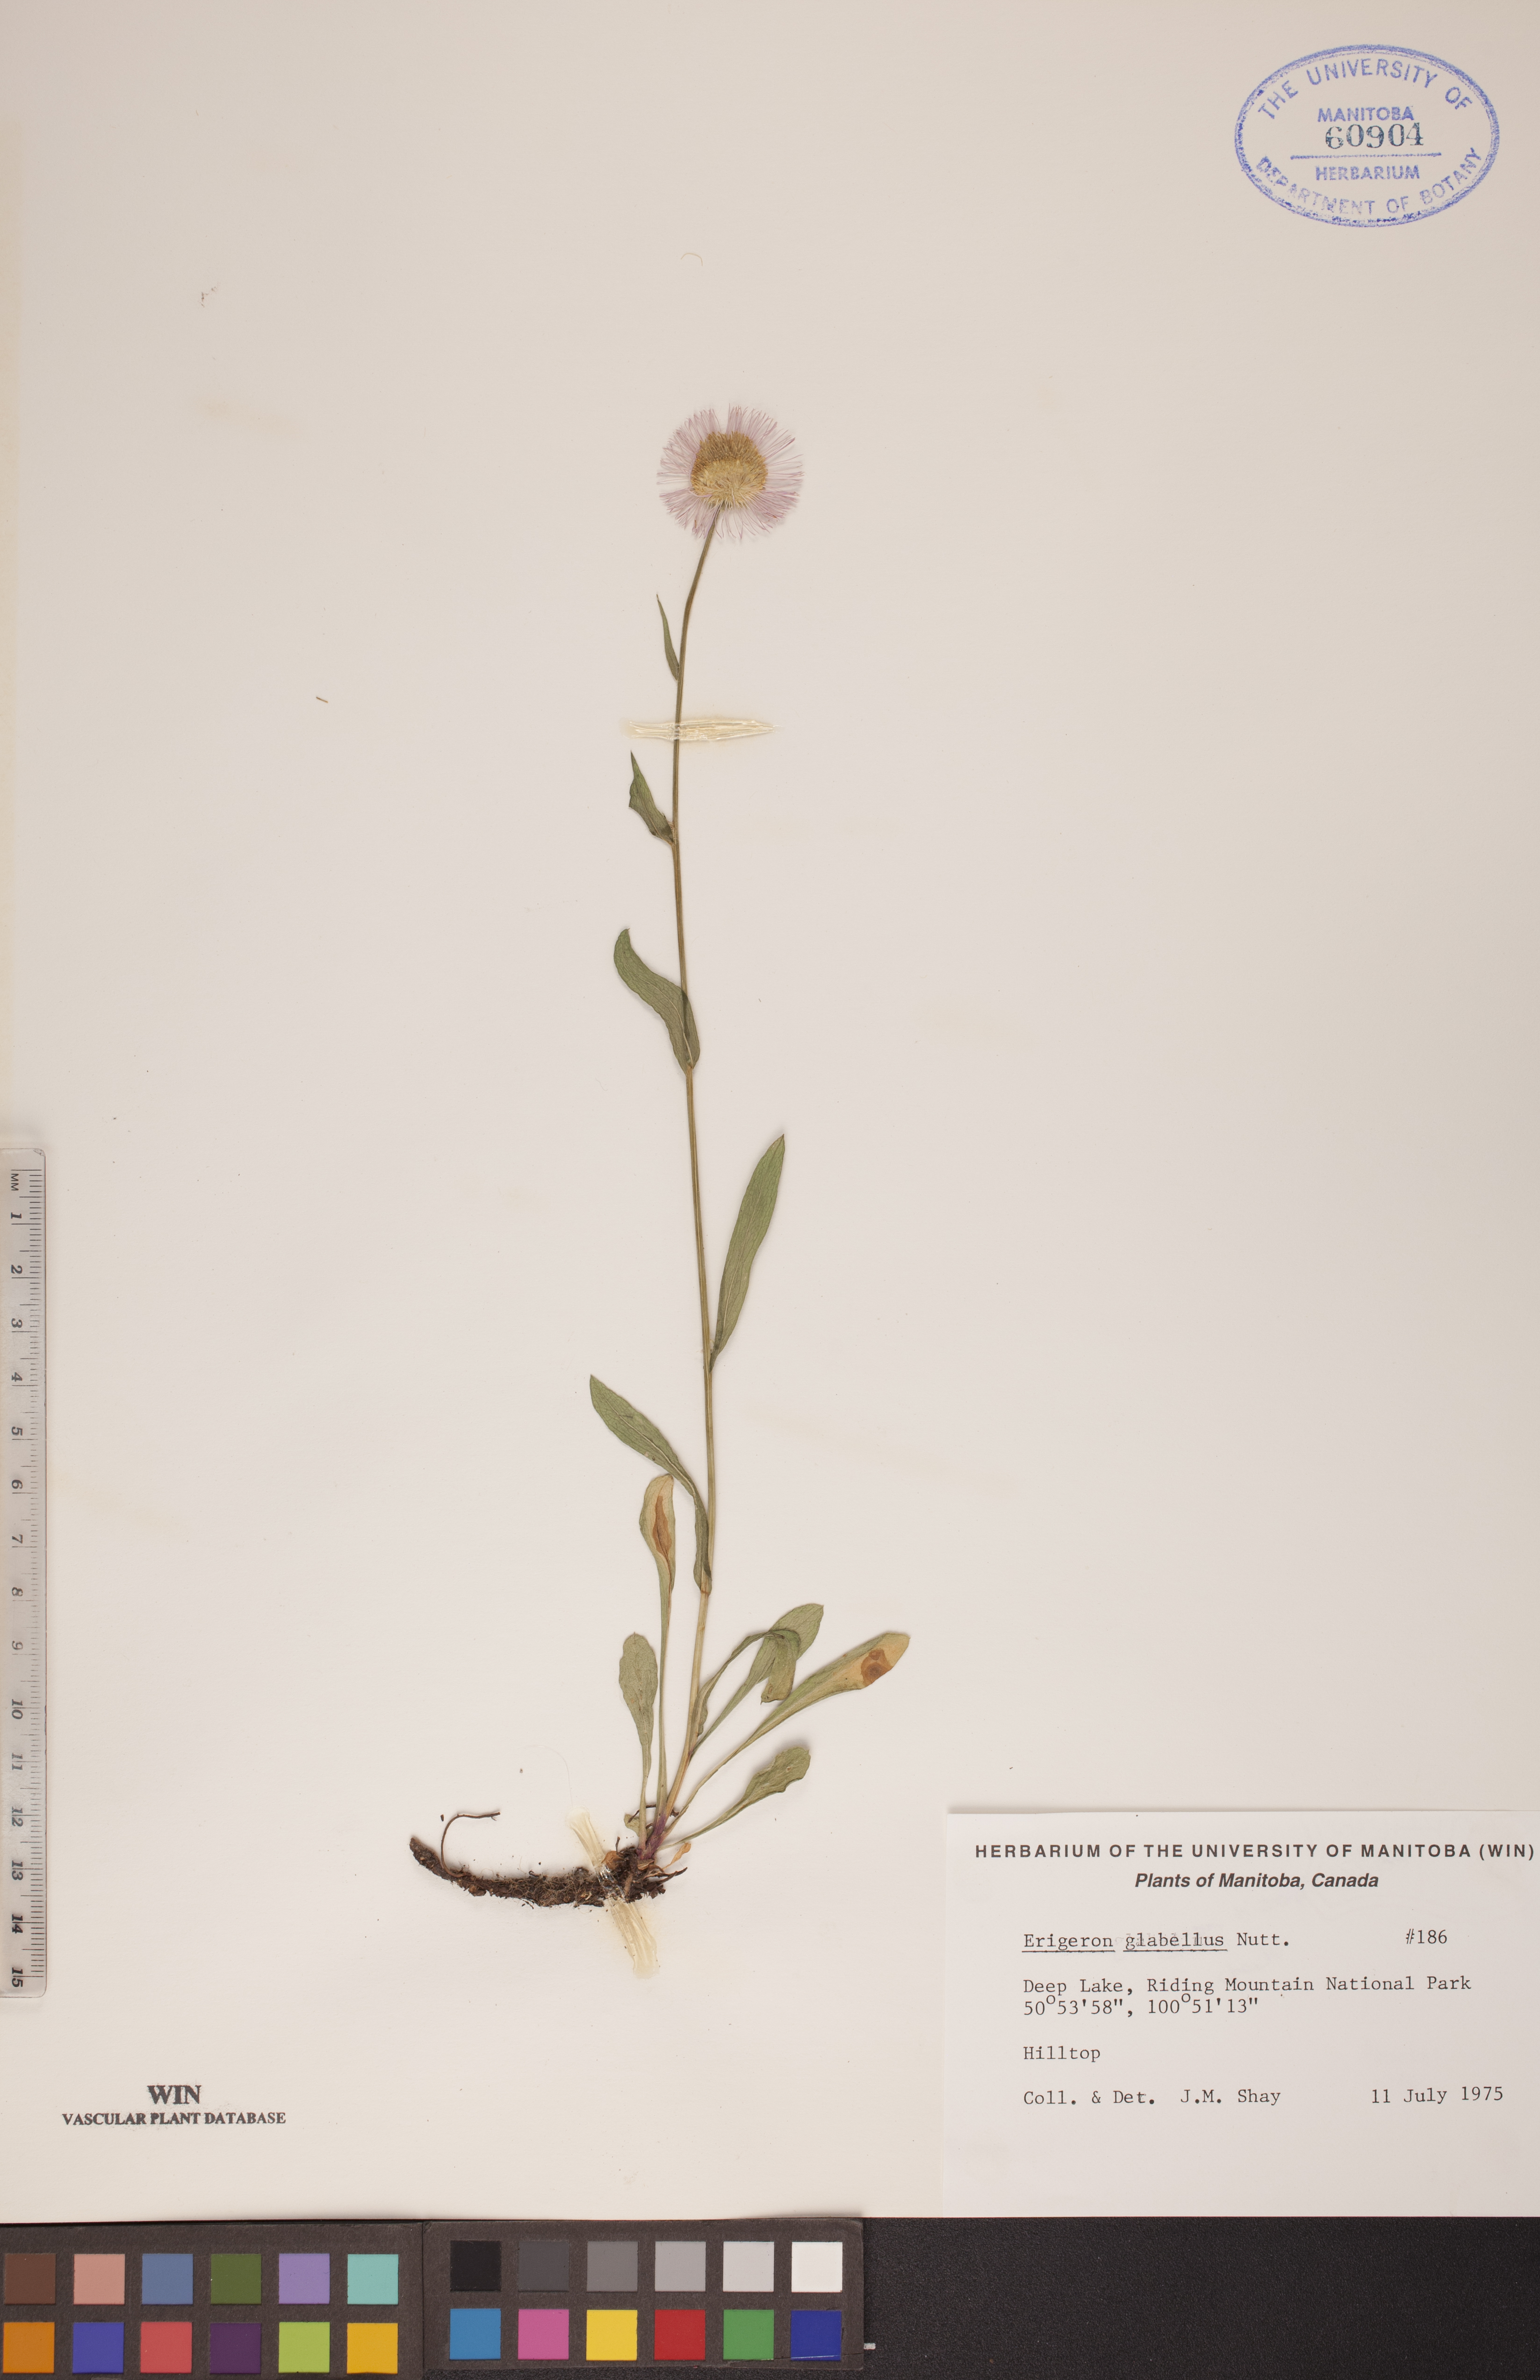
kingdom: Plantae
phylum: Tracheophyta
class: Magnoliopsida
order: Asterales
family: Asteraceae
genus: Erigeron
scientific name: Erigeron glabellus
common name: Smooth fleabane
